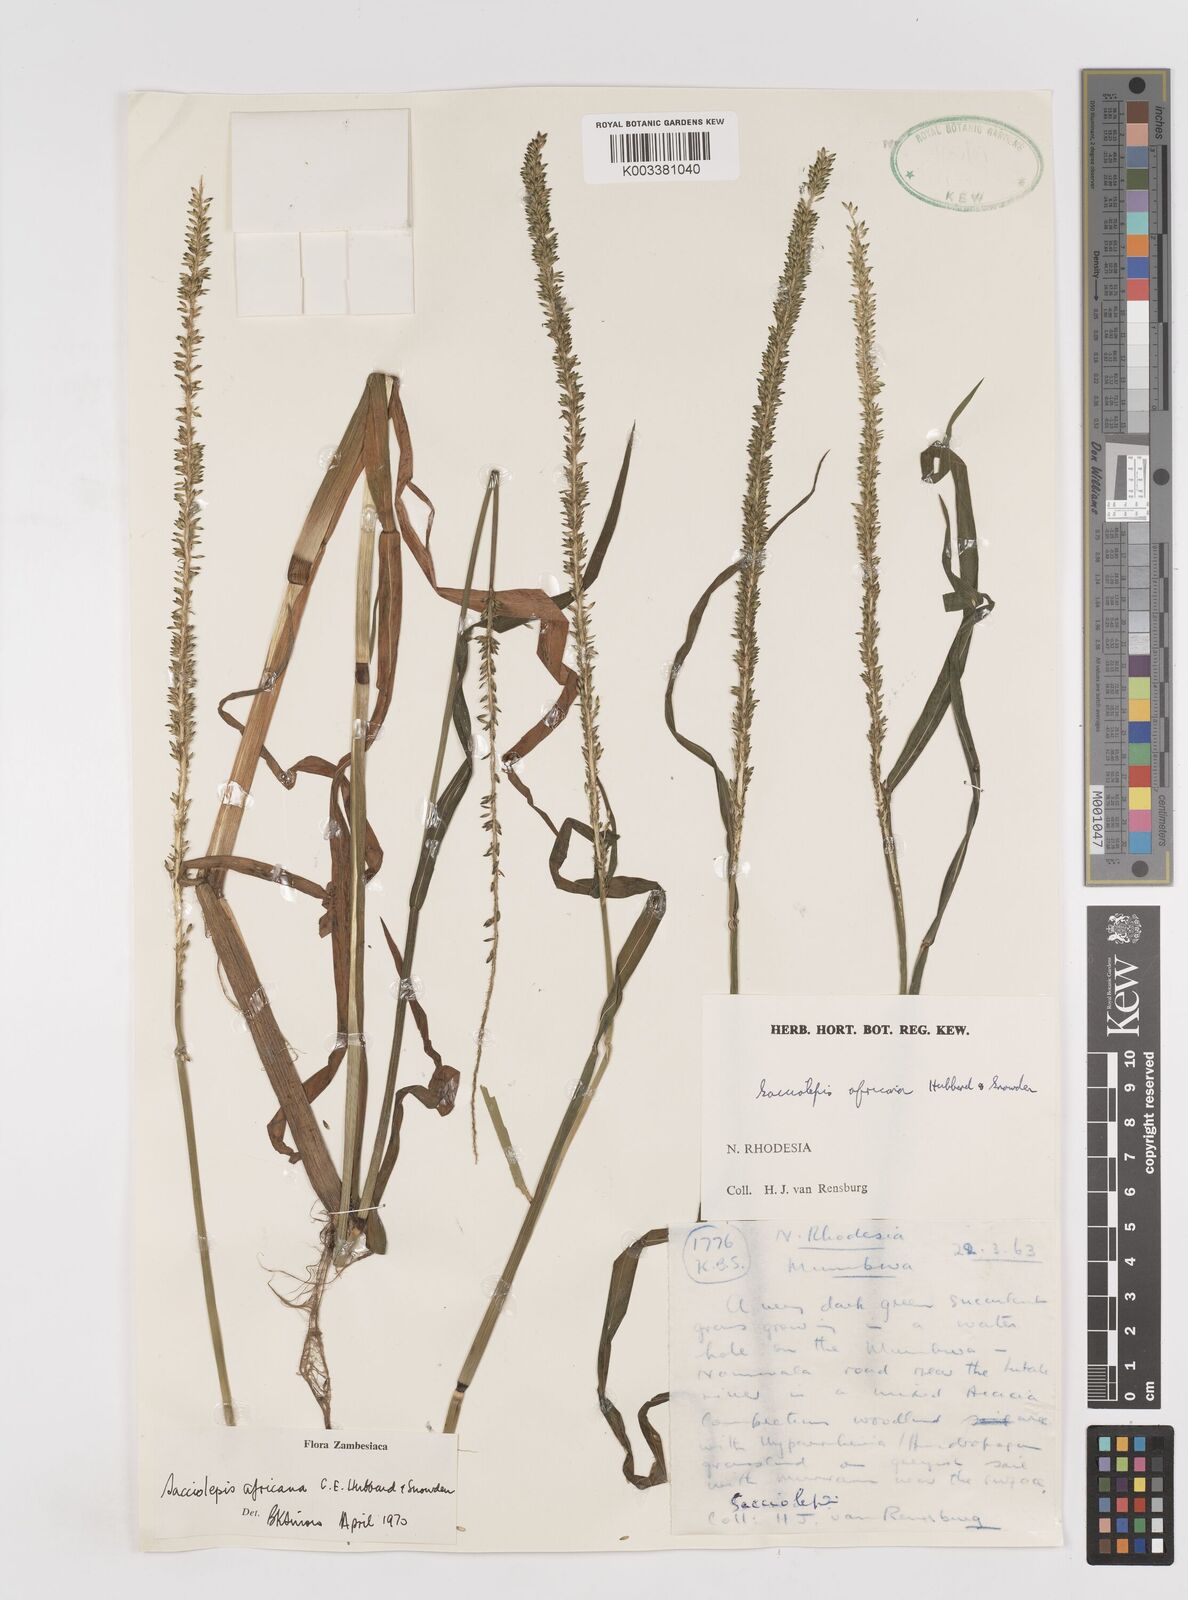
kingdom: Plantae
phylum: Tracheophyta
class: Liliopsida
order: Poales
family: Poaceae
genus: Sacciolepis
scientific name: Sacciolepis africana
